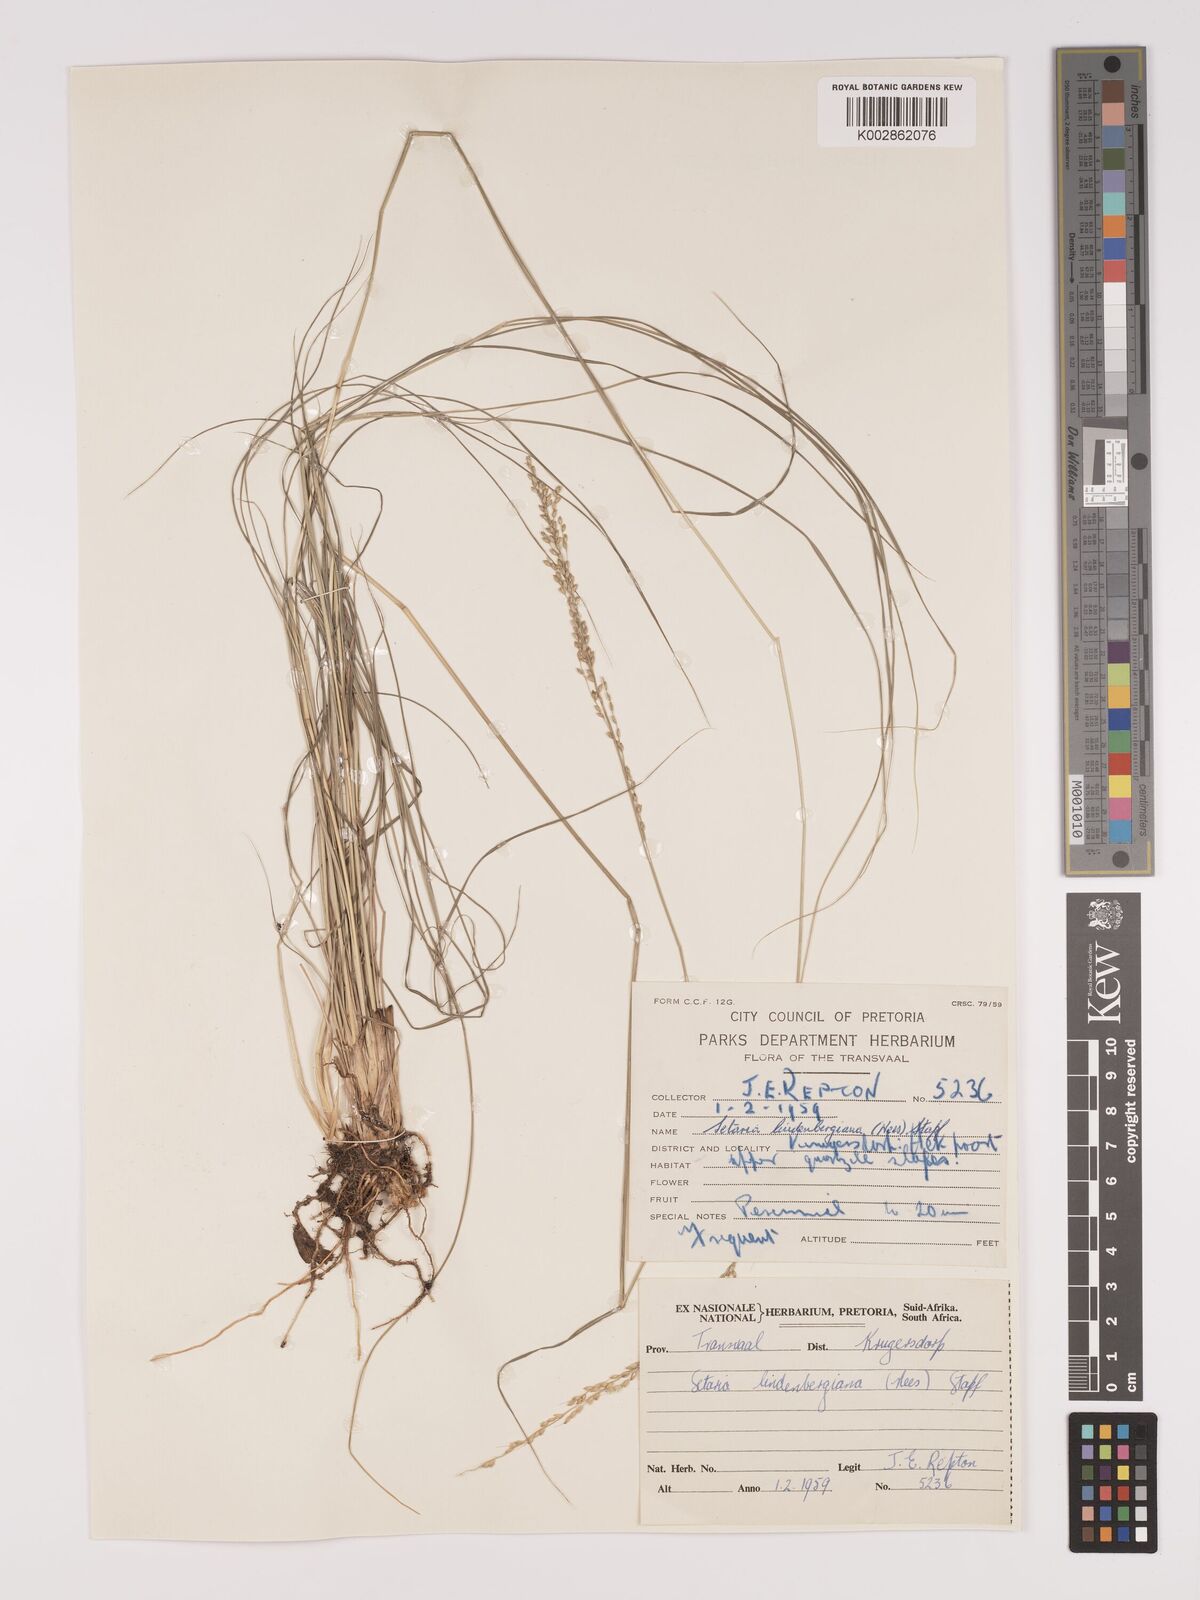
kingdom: Plantae
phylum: Tracheophyta
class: Liliopsida
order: Poales
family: Poaceae
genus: Setaria
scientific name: Setaria lindenbergiana
